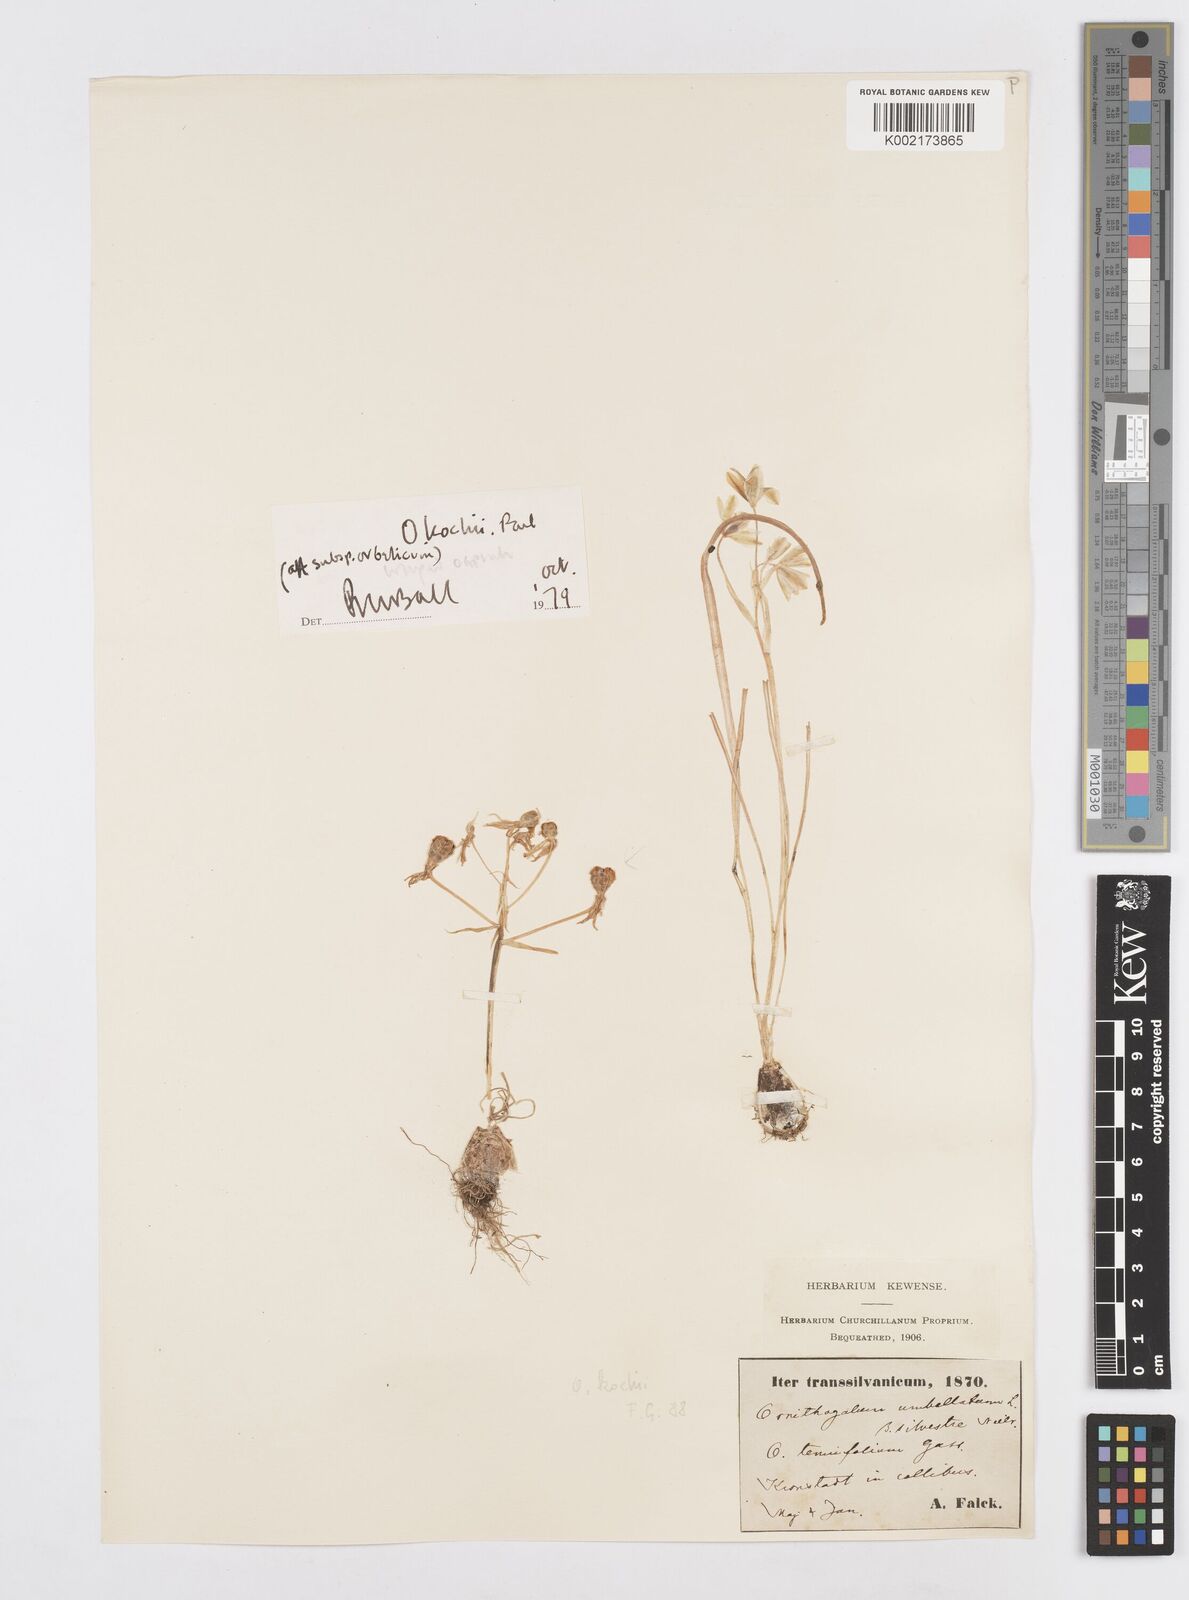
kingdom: Plantae
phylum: Tracheophyta
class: Liliopsida
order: Asparagales
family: Asparagaceae
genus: Ornithogalum
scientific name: Ornithogalum orthophyllum
